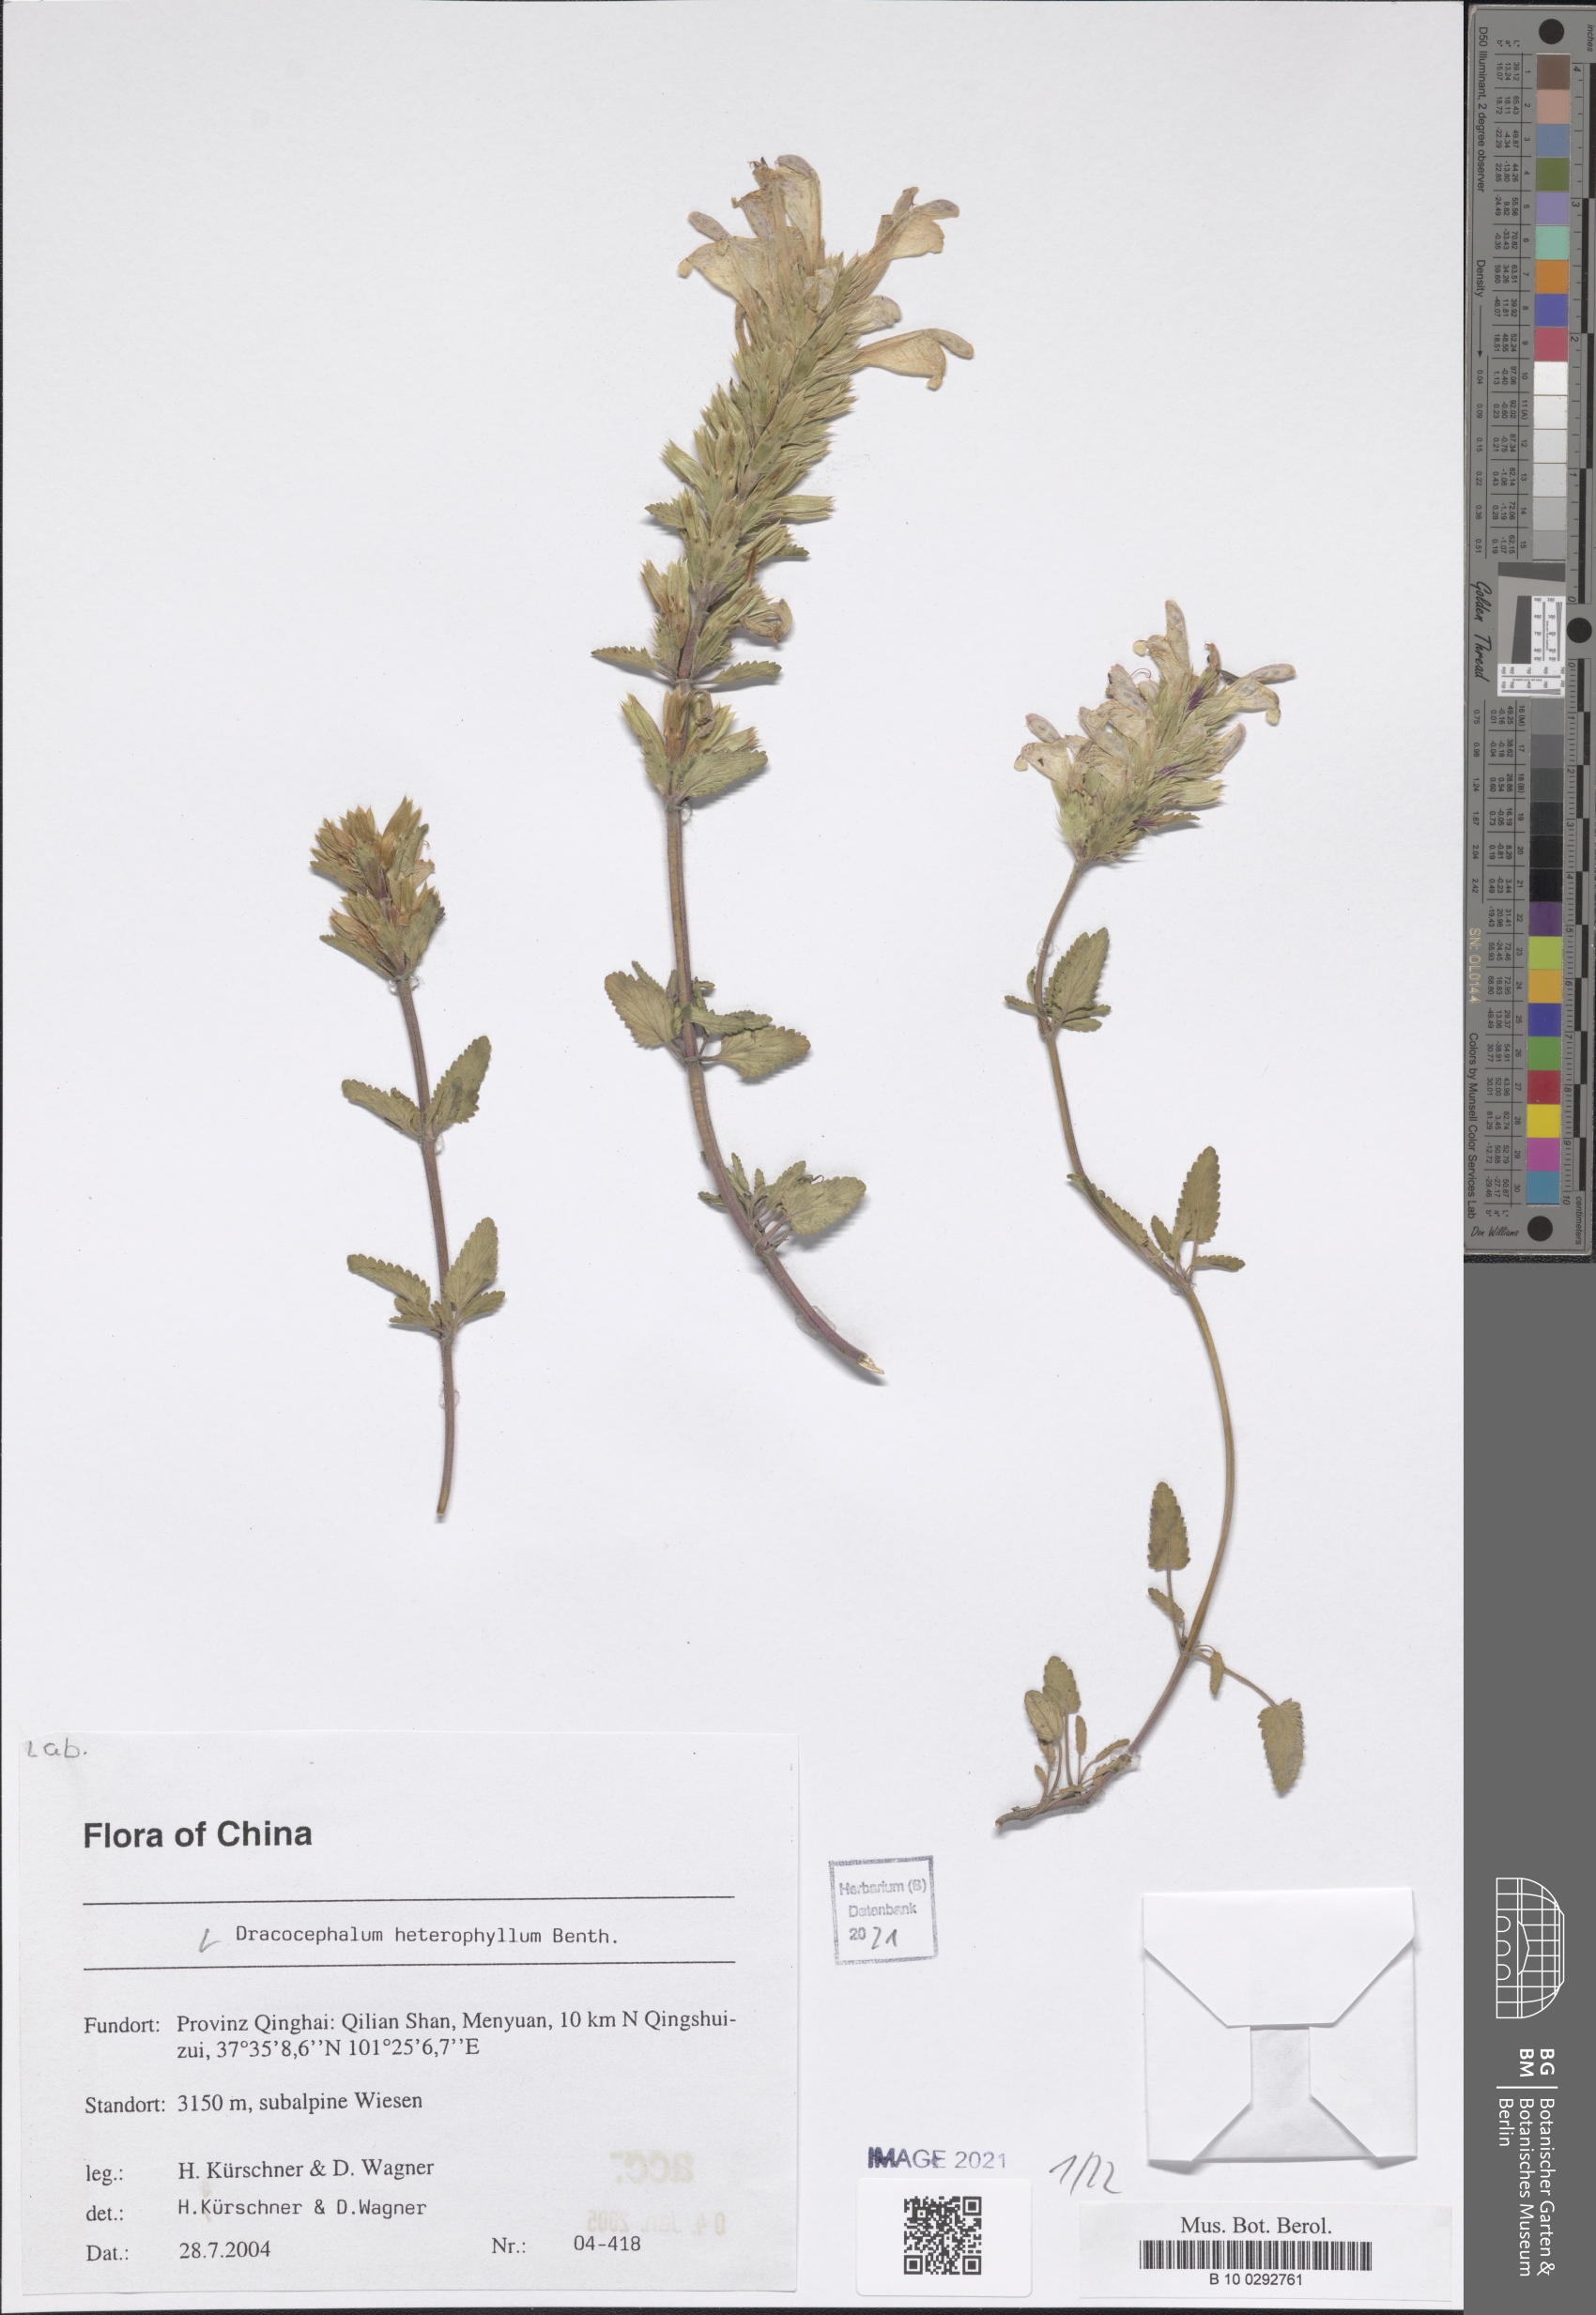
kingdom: Plantae
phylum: Tracheophyta
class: Magnoliopsida
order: Lamiales
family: Lamiaceae
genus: Dracocephalum
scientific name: Dracocephalum heterophyllum
